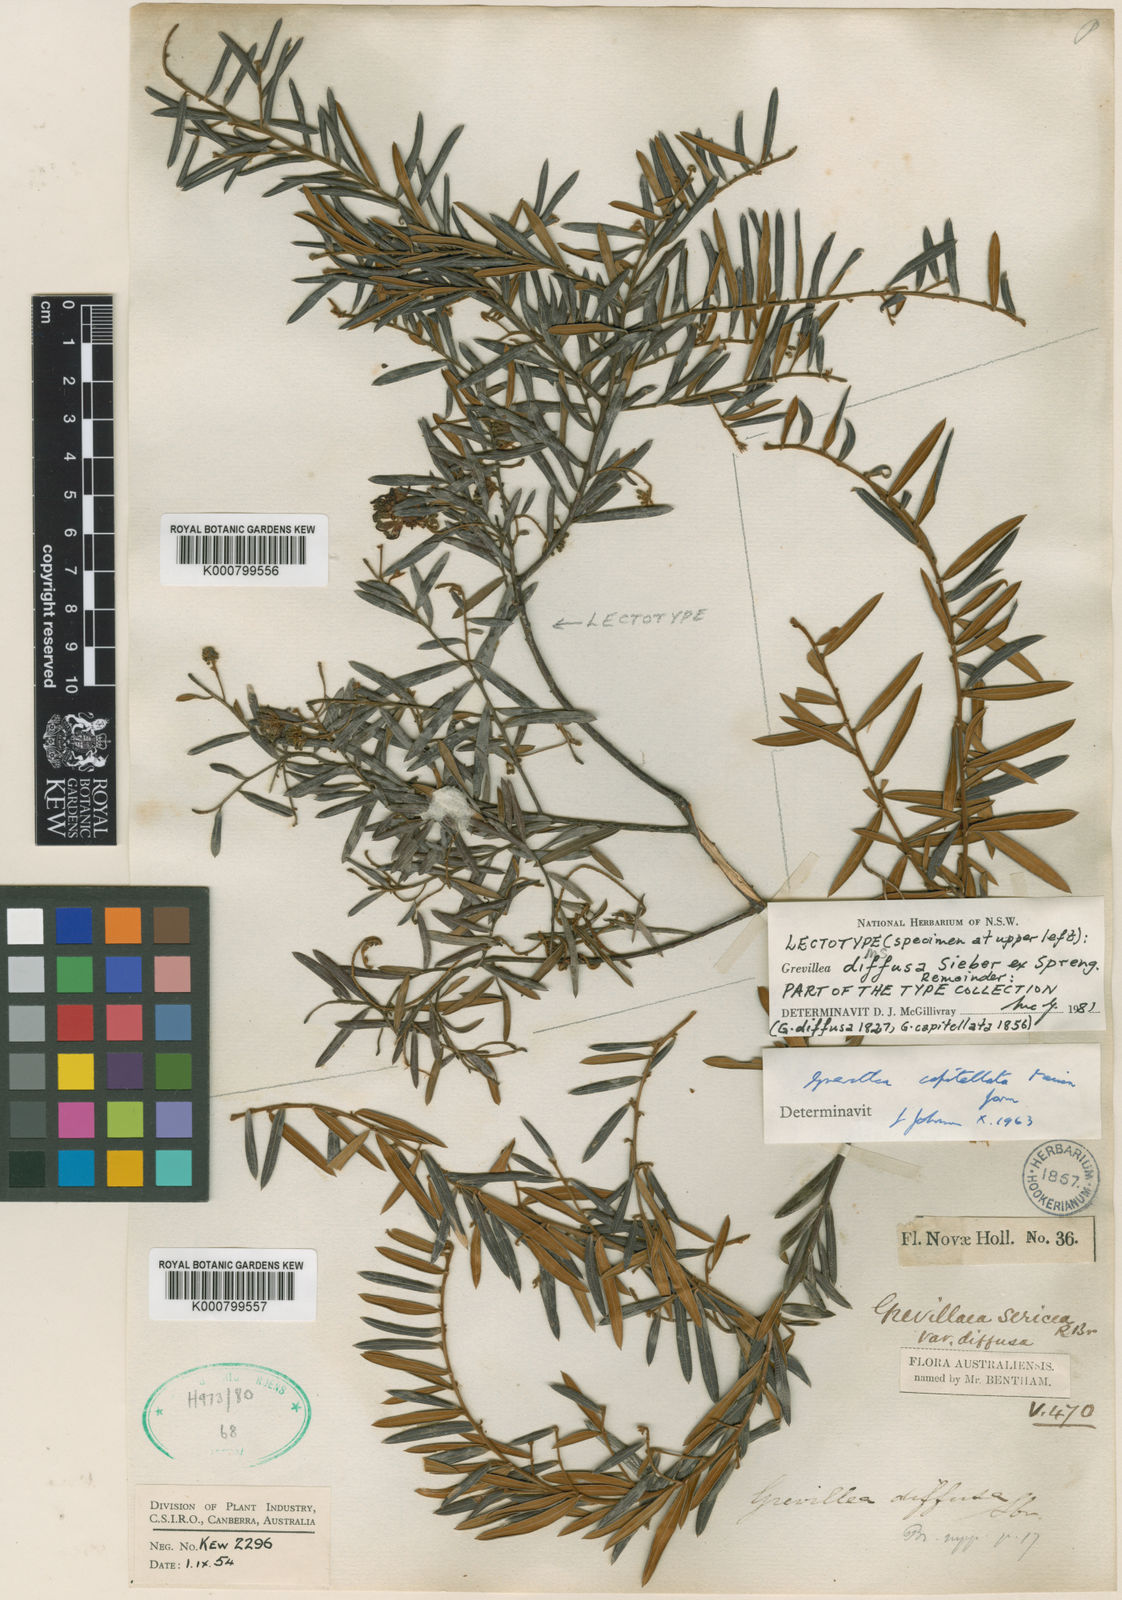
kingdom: Plantae
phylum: Tracheophyta
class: Magnoliopsida
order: Proteales
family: Proteaceae
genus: Grevillea
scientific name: Grevillea diffusa
